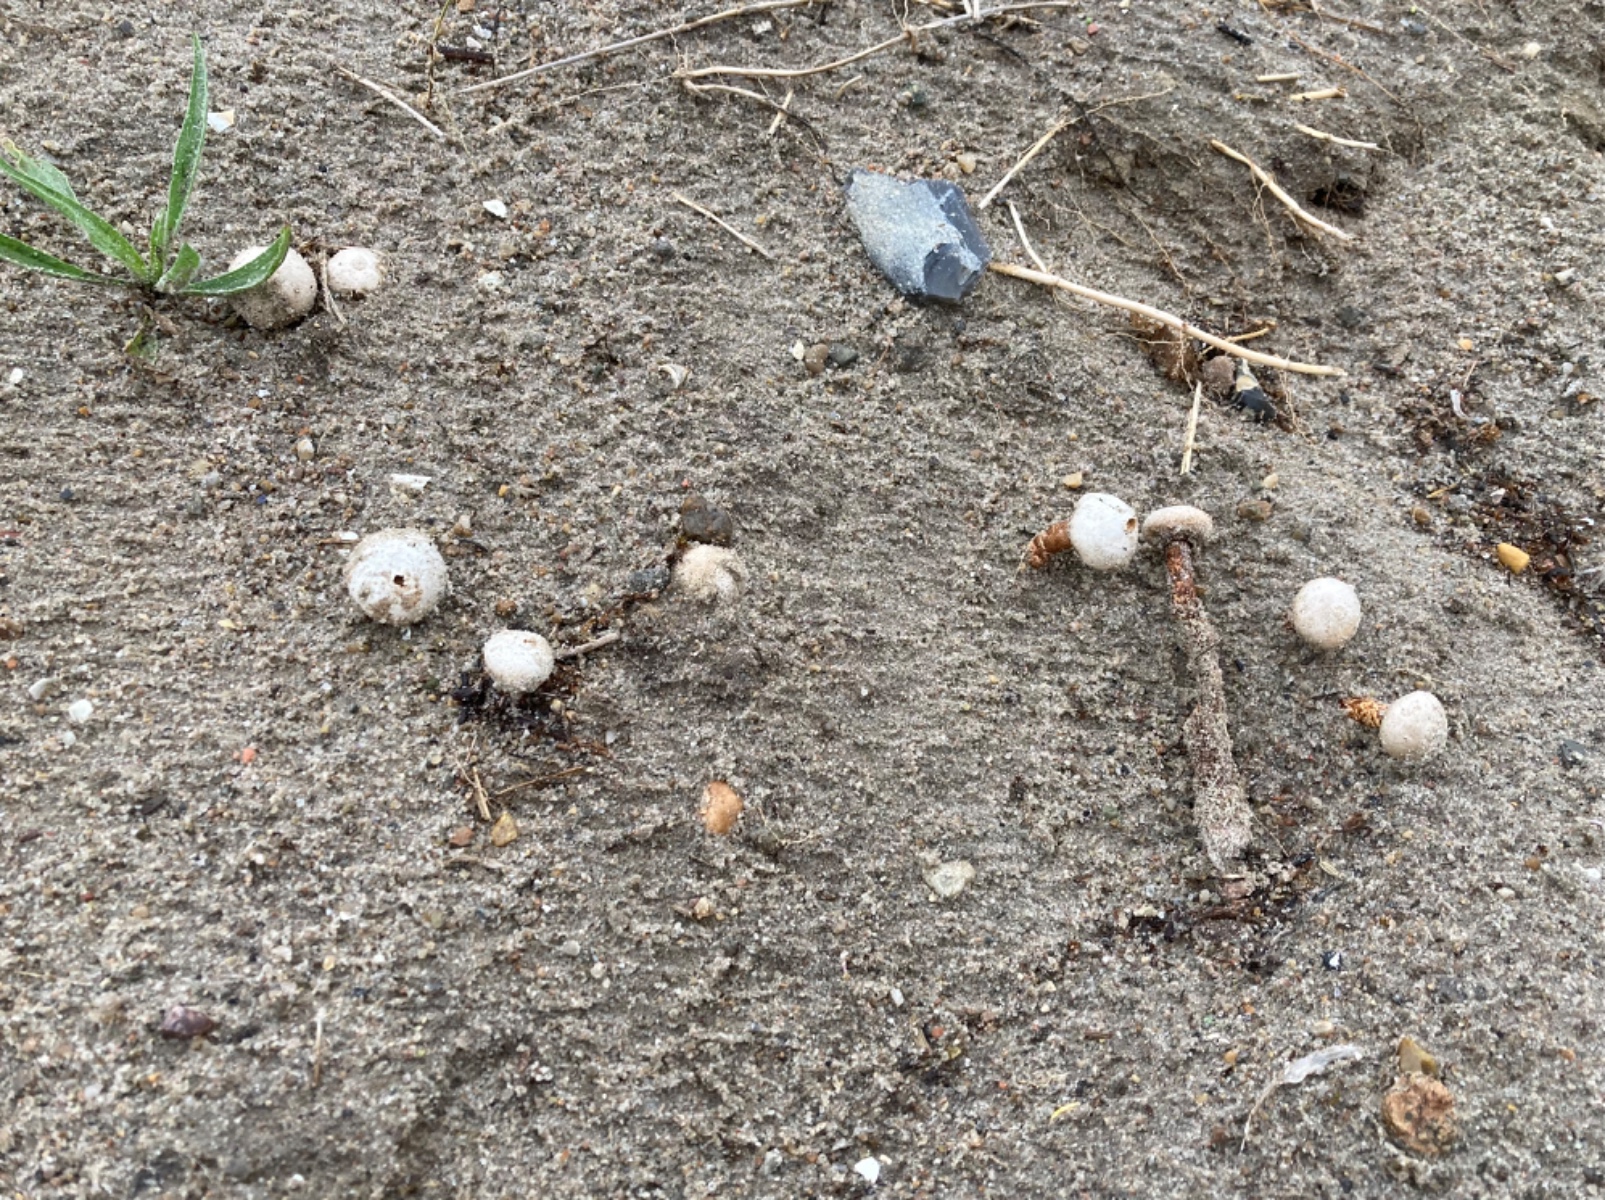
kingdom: Fungi
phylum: Basidiomycota
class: Agaricomycetes
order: Agaricales
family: Agaricaceae
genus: Tulostoma
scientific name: Tulostoma fimbriatum
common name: frynset stilkbovist
